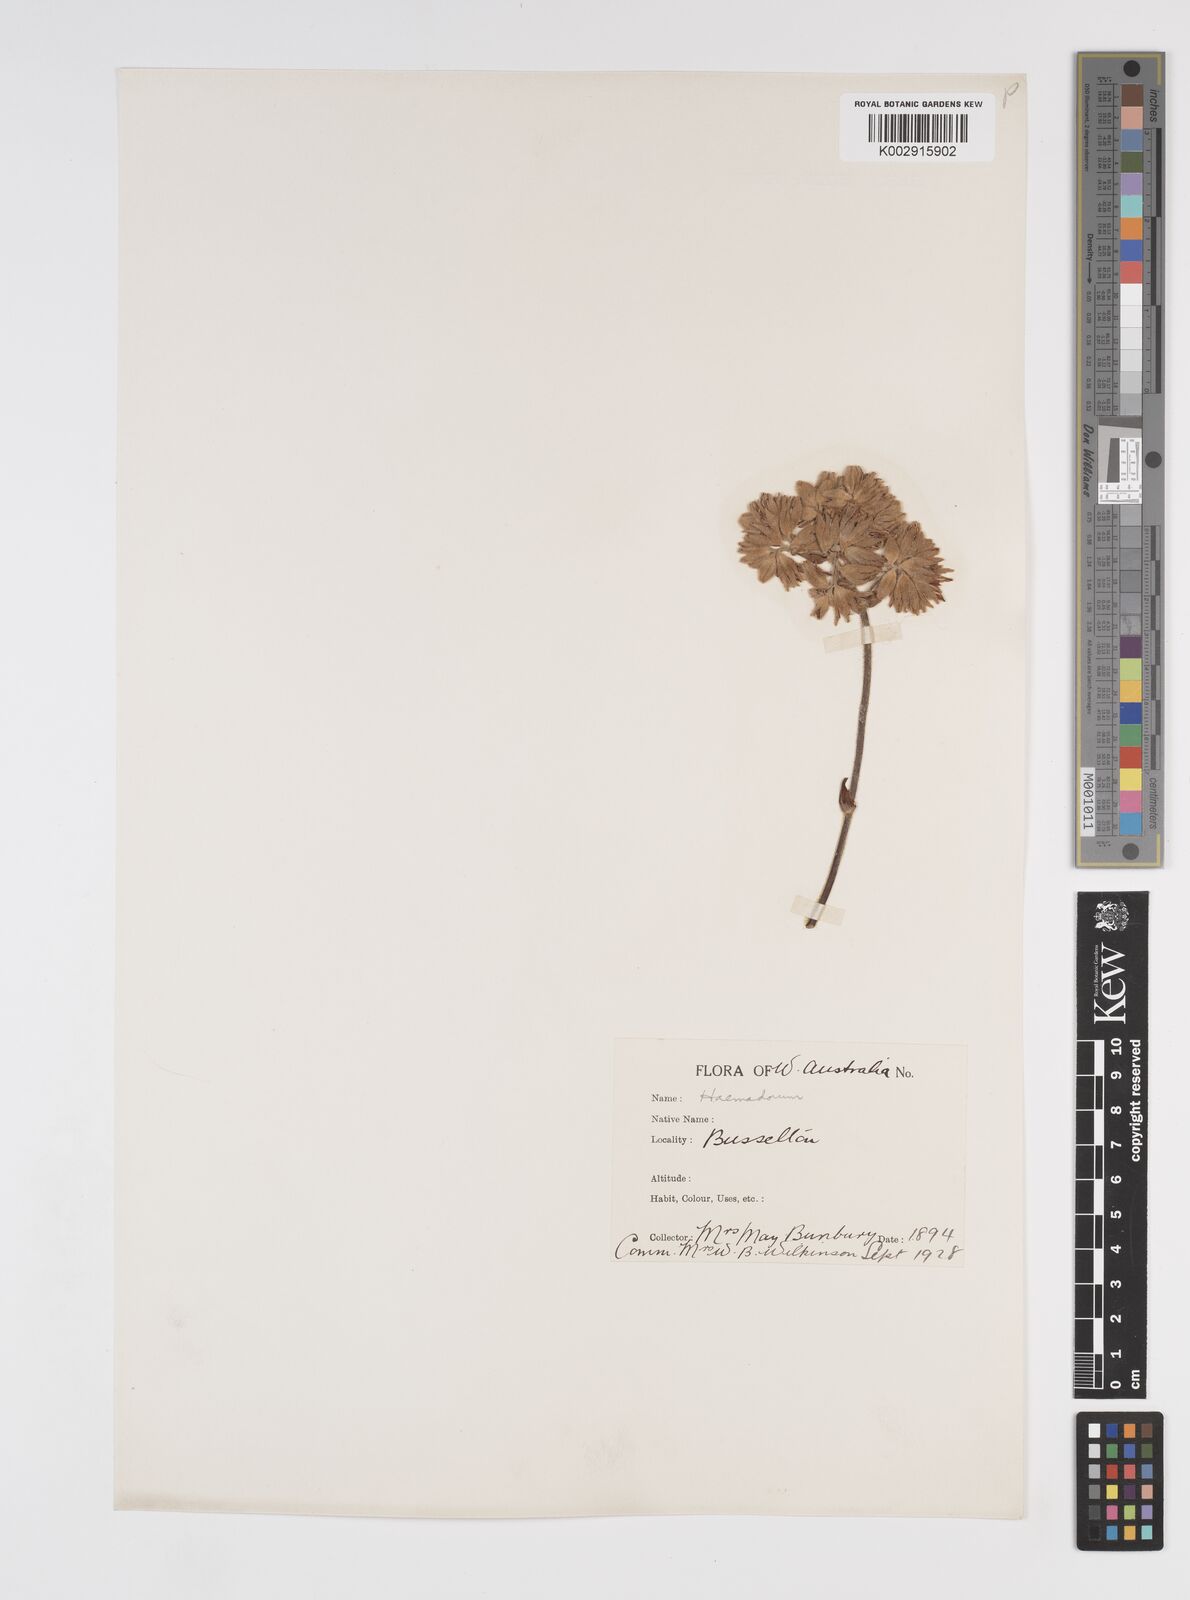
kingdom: Plantae
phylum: Tracheophyta
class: Liliopsida
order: Commelinales
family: Haemodoraceae
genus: Conostylis
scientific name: Conostylis
